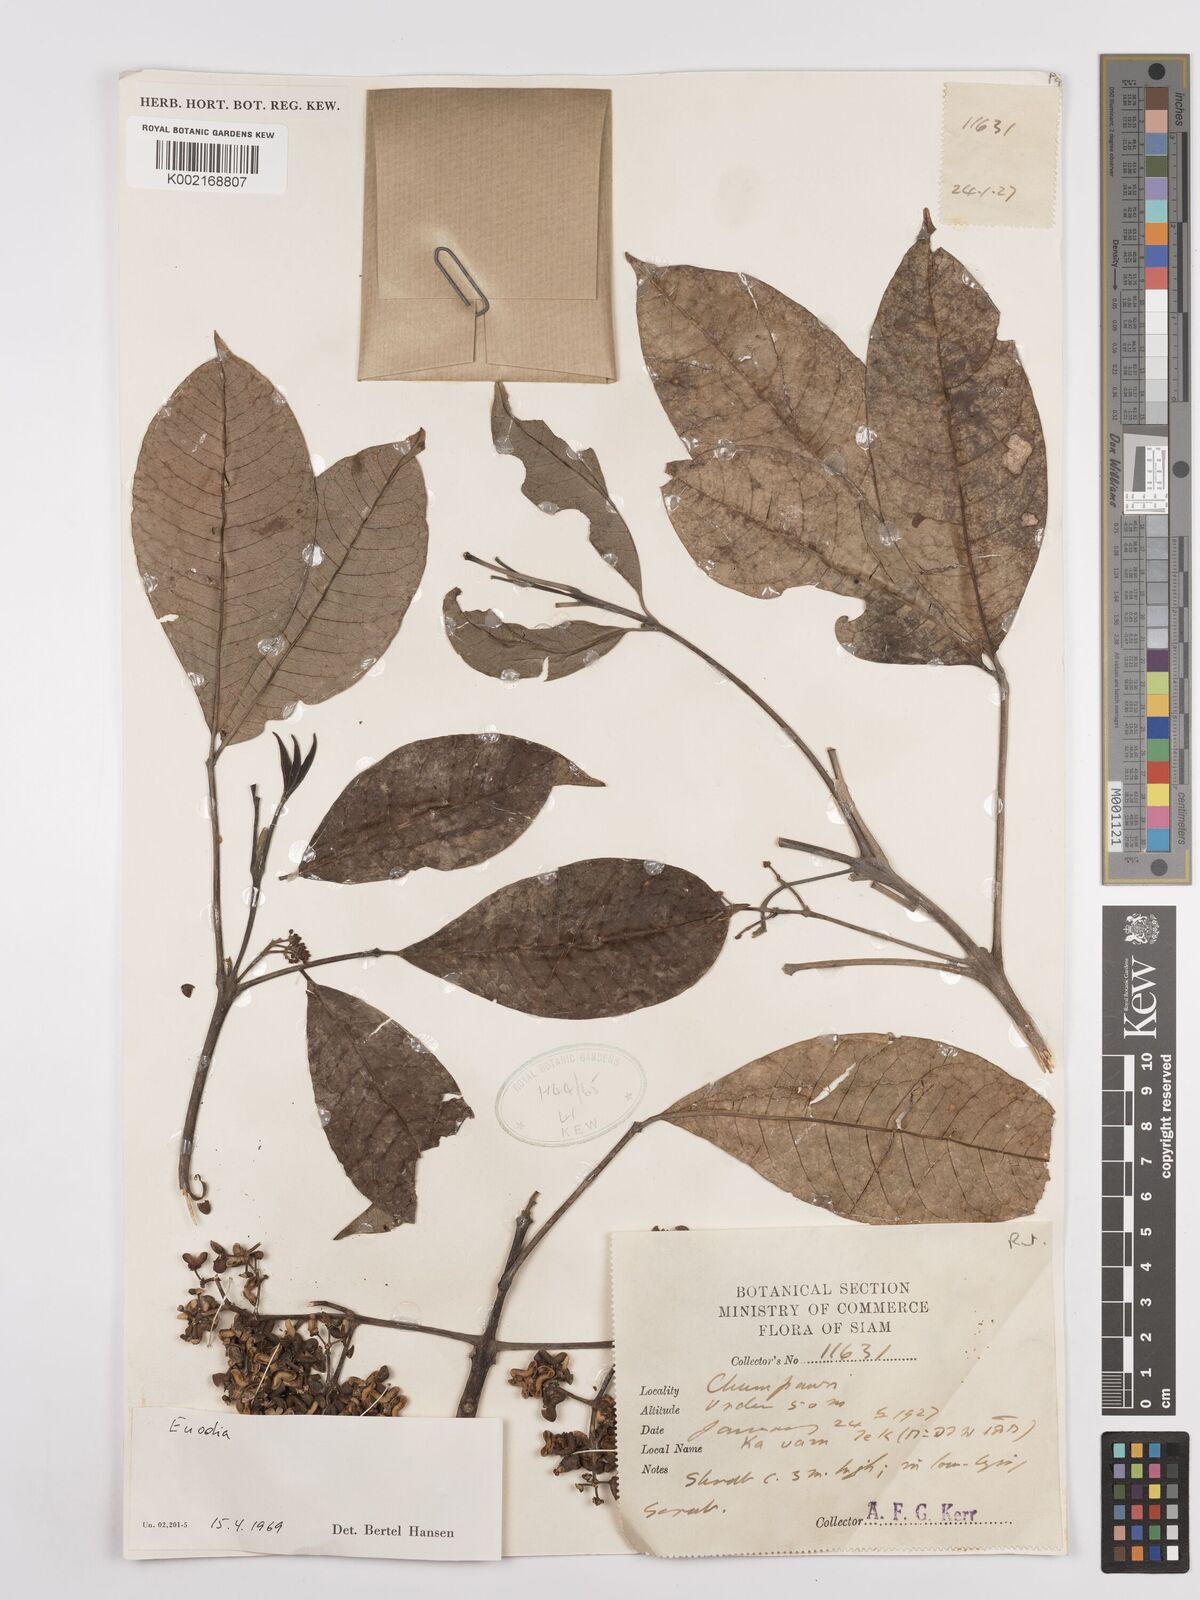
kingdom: Plantae
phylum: Tracheophyta
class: Magnoliopsida
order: Sapindales
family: Rutaceae
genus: Euodia
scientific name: Euodia
